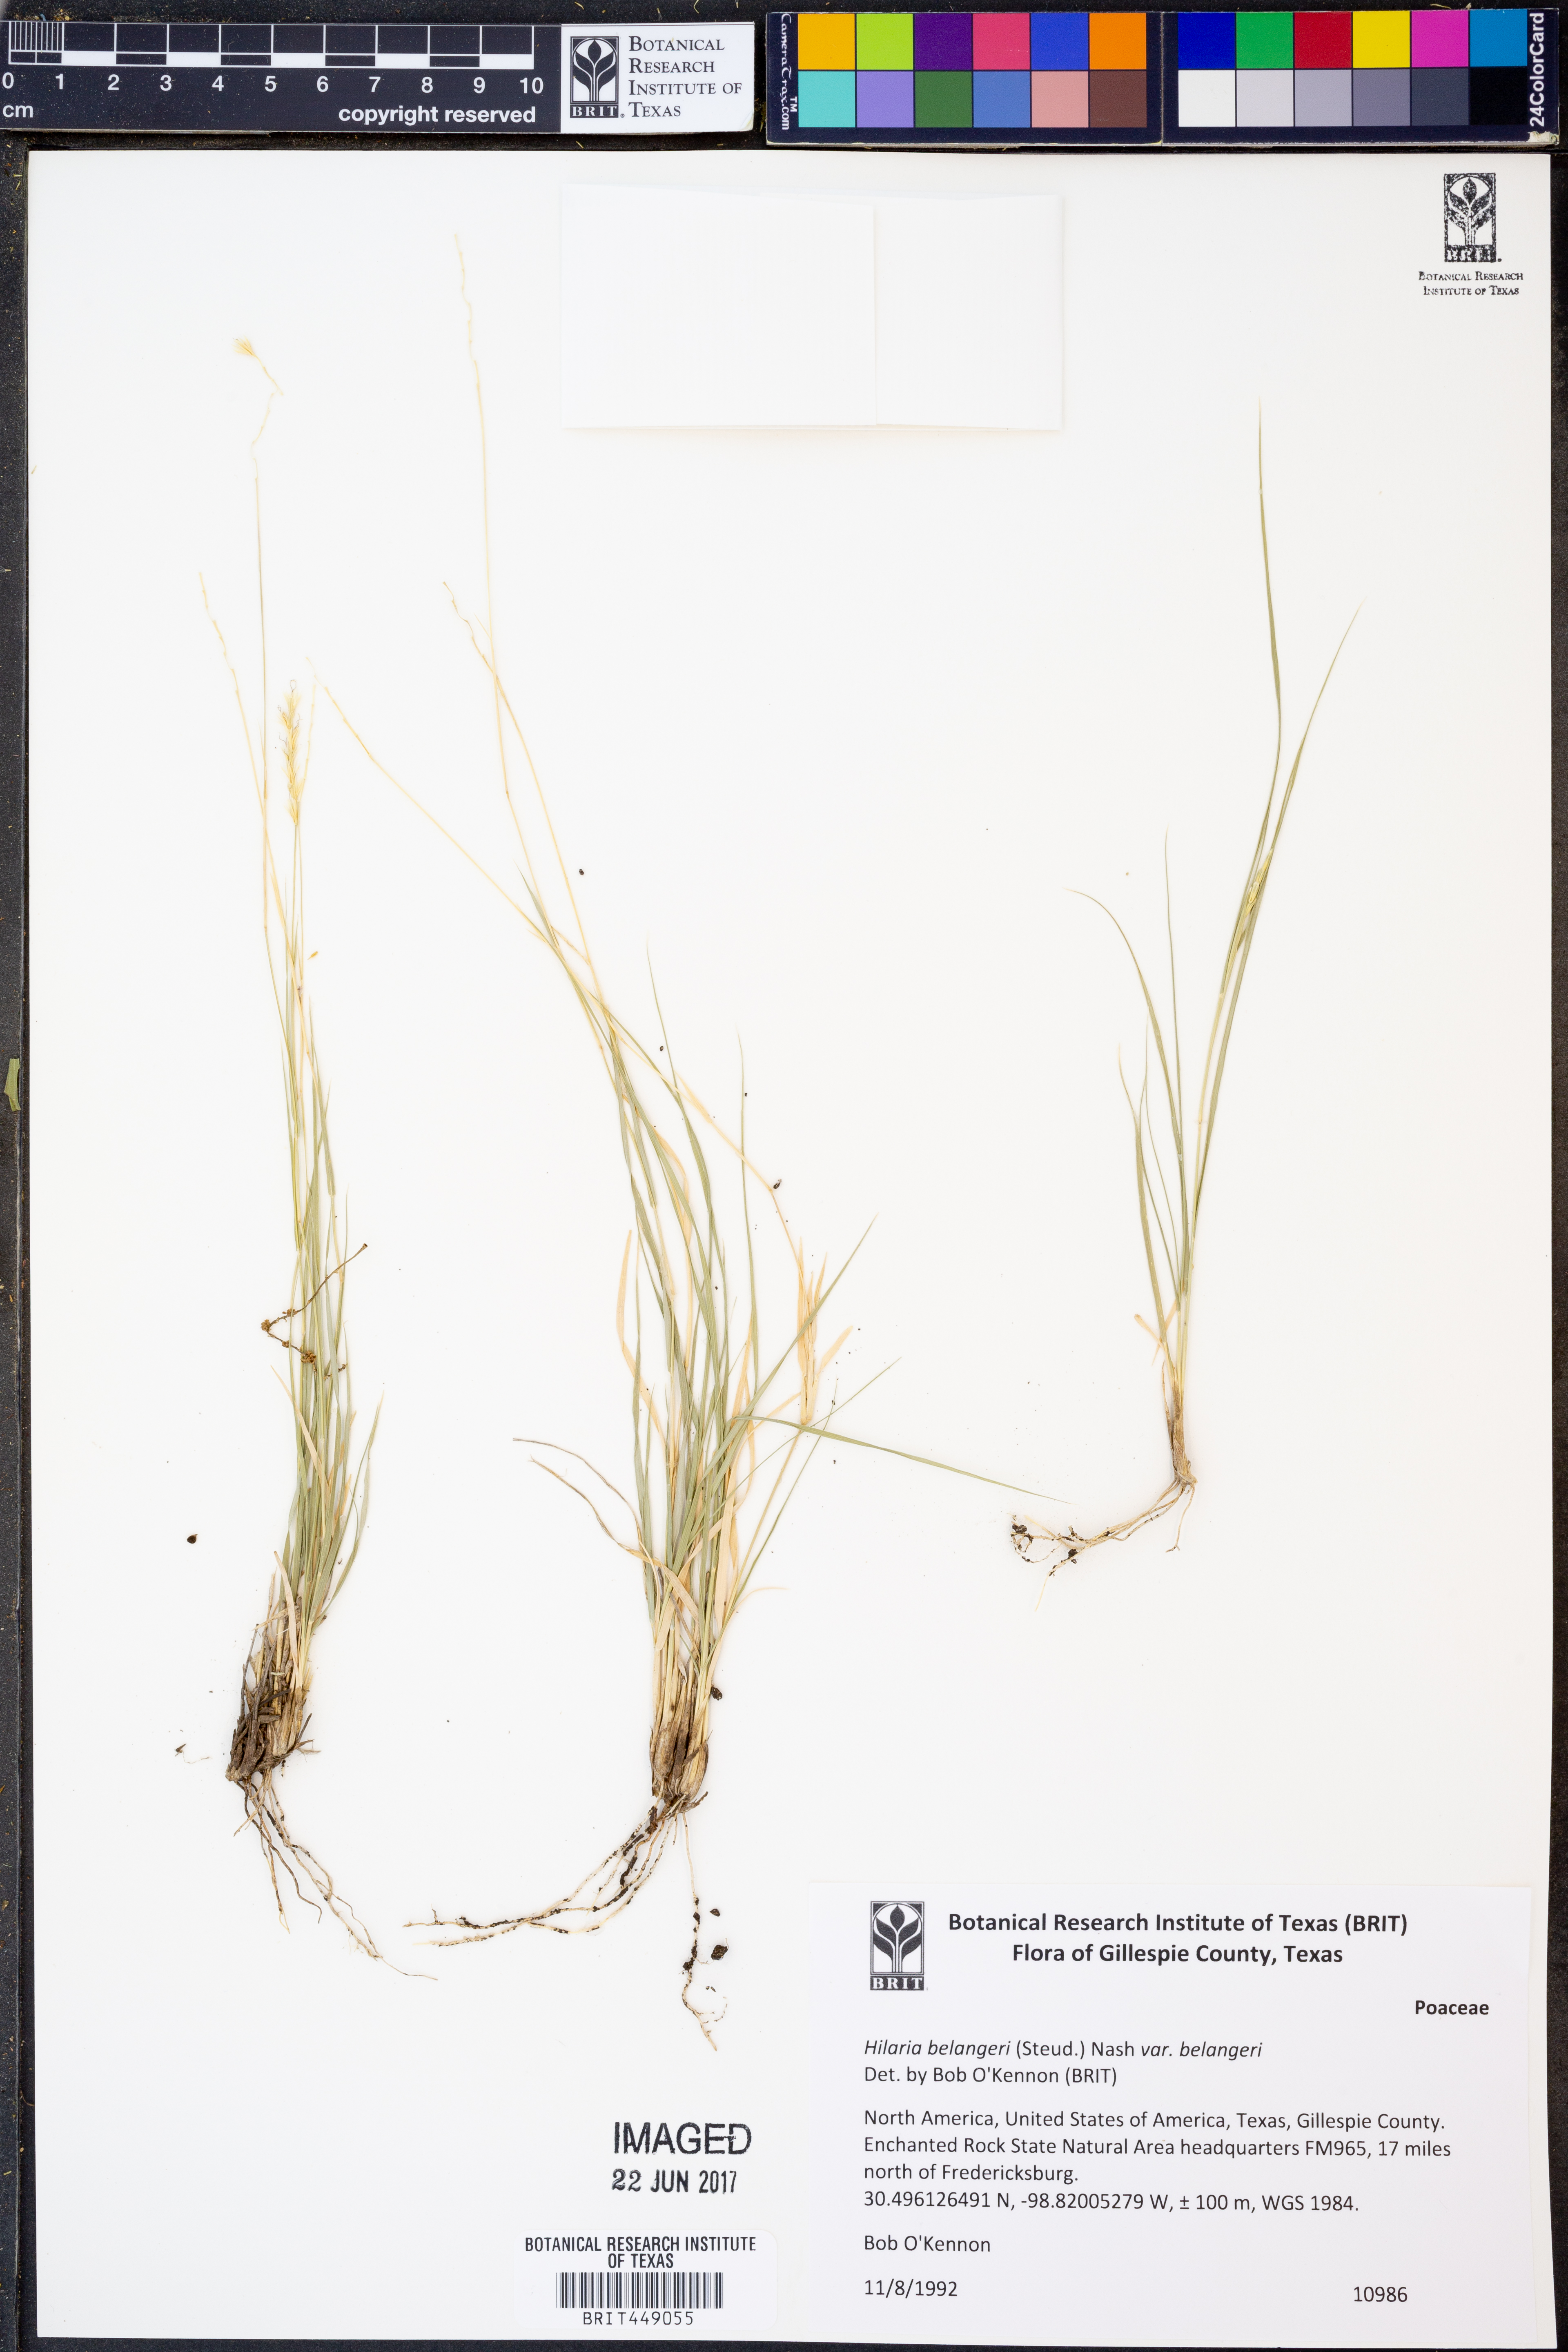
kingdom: Plantae
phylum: Tracheophyta
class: Liliopsida
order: Poales
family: Poaceae
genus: Hilaria
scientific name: Hilaria belangeri
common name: Curly-mesquite
